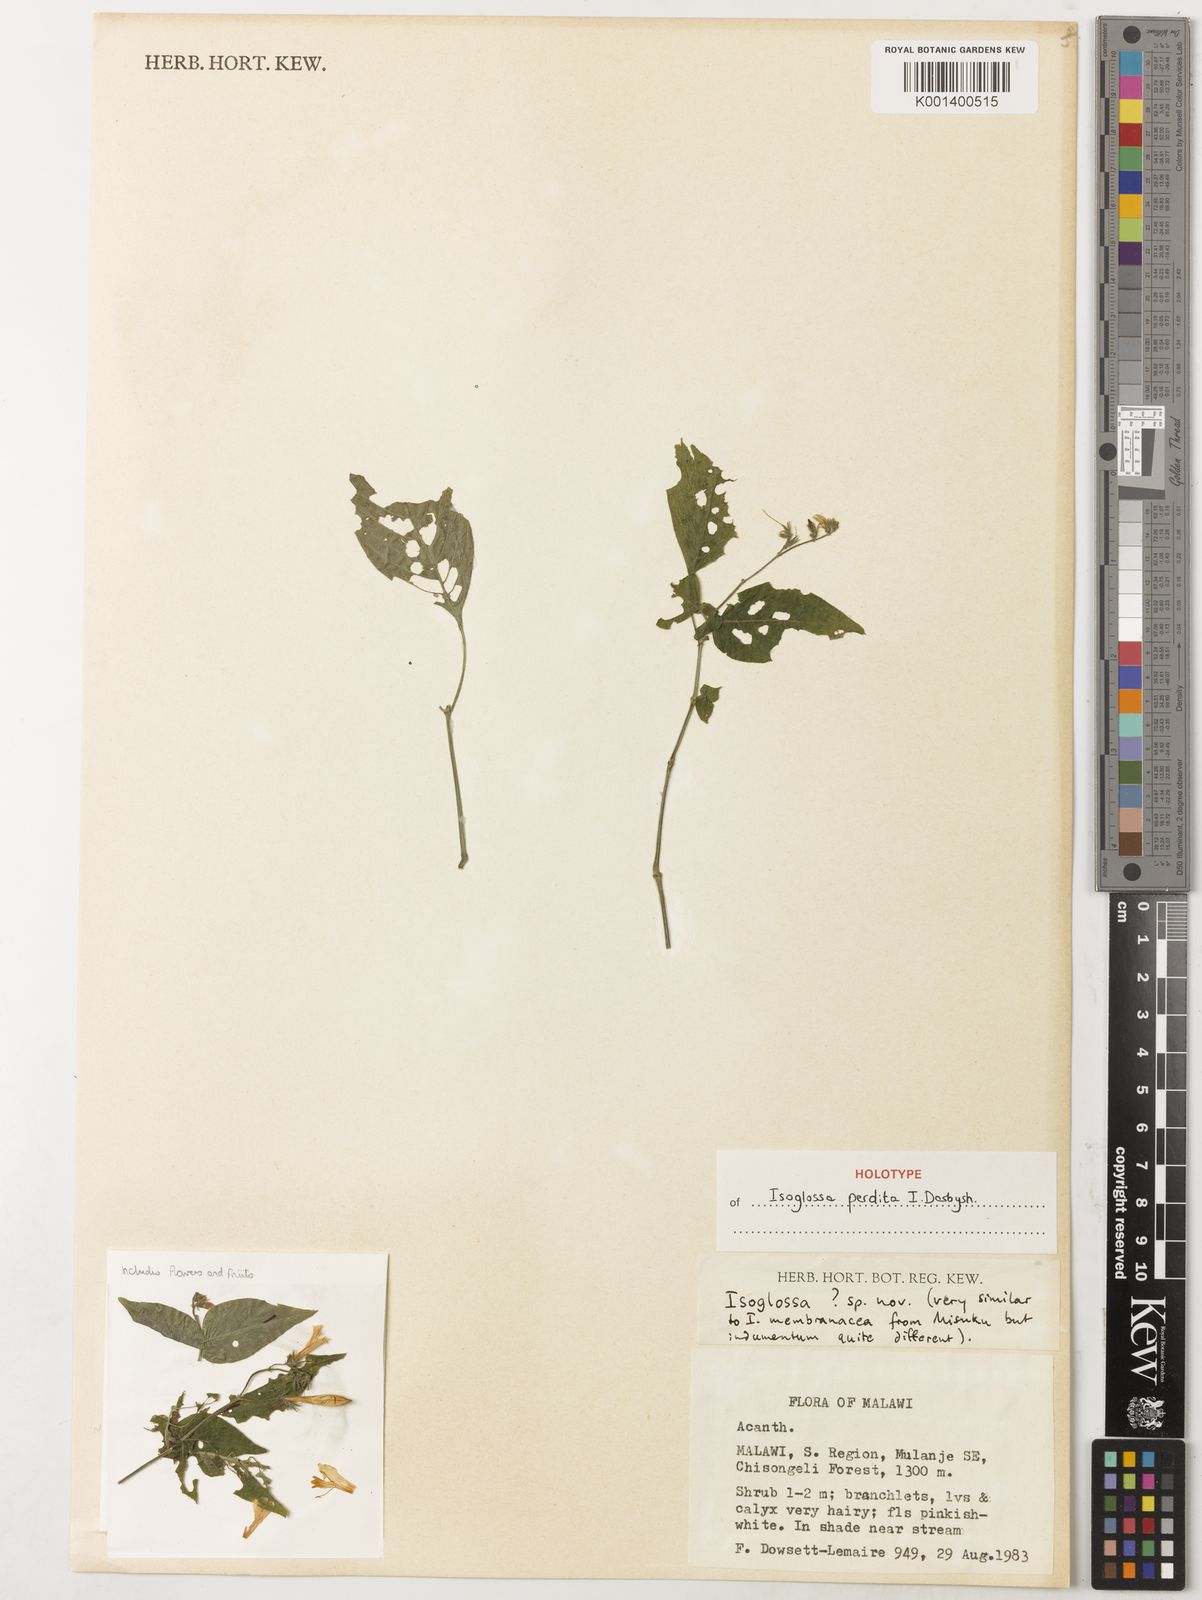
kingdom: Plantae
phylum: Tracheophyta
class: Magnoliopsida
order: Lamiales
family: Acanthaceae
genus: Isoglossa
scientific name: Isoglossa
